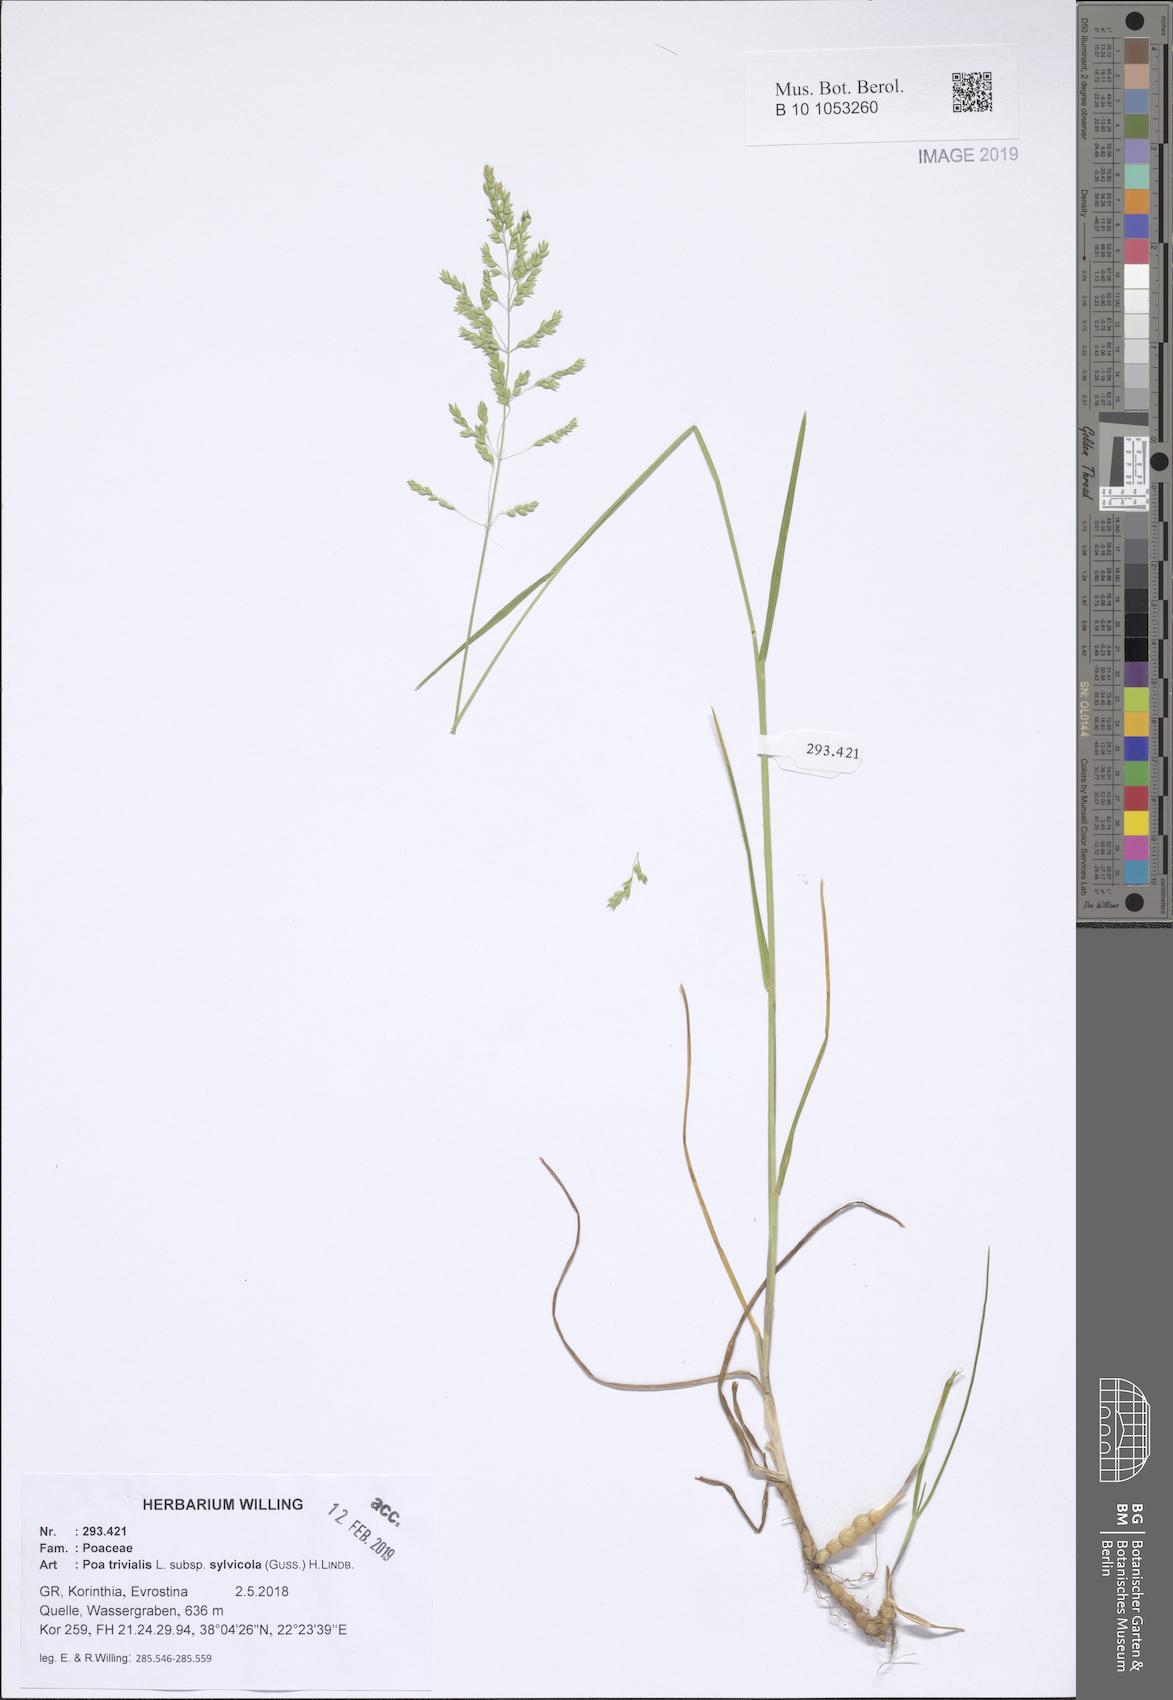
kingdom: Plantae
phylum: Tracheophyta
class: Liliopsida
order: Poales
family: Poaceae
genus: Poa
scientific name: Poa trivialis
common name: Rough bluegrass
